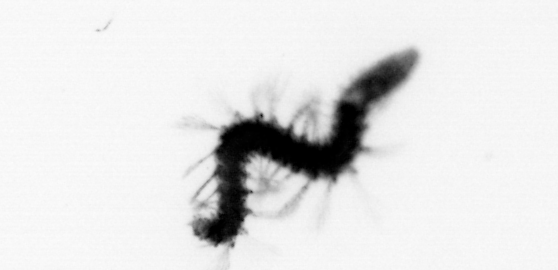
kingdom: Animalia
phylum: Annelida
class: Polychaeta
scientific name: Polychaeta
